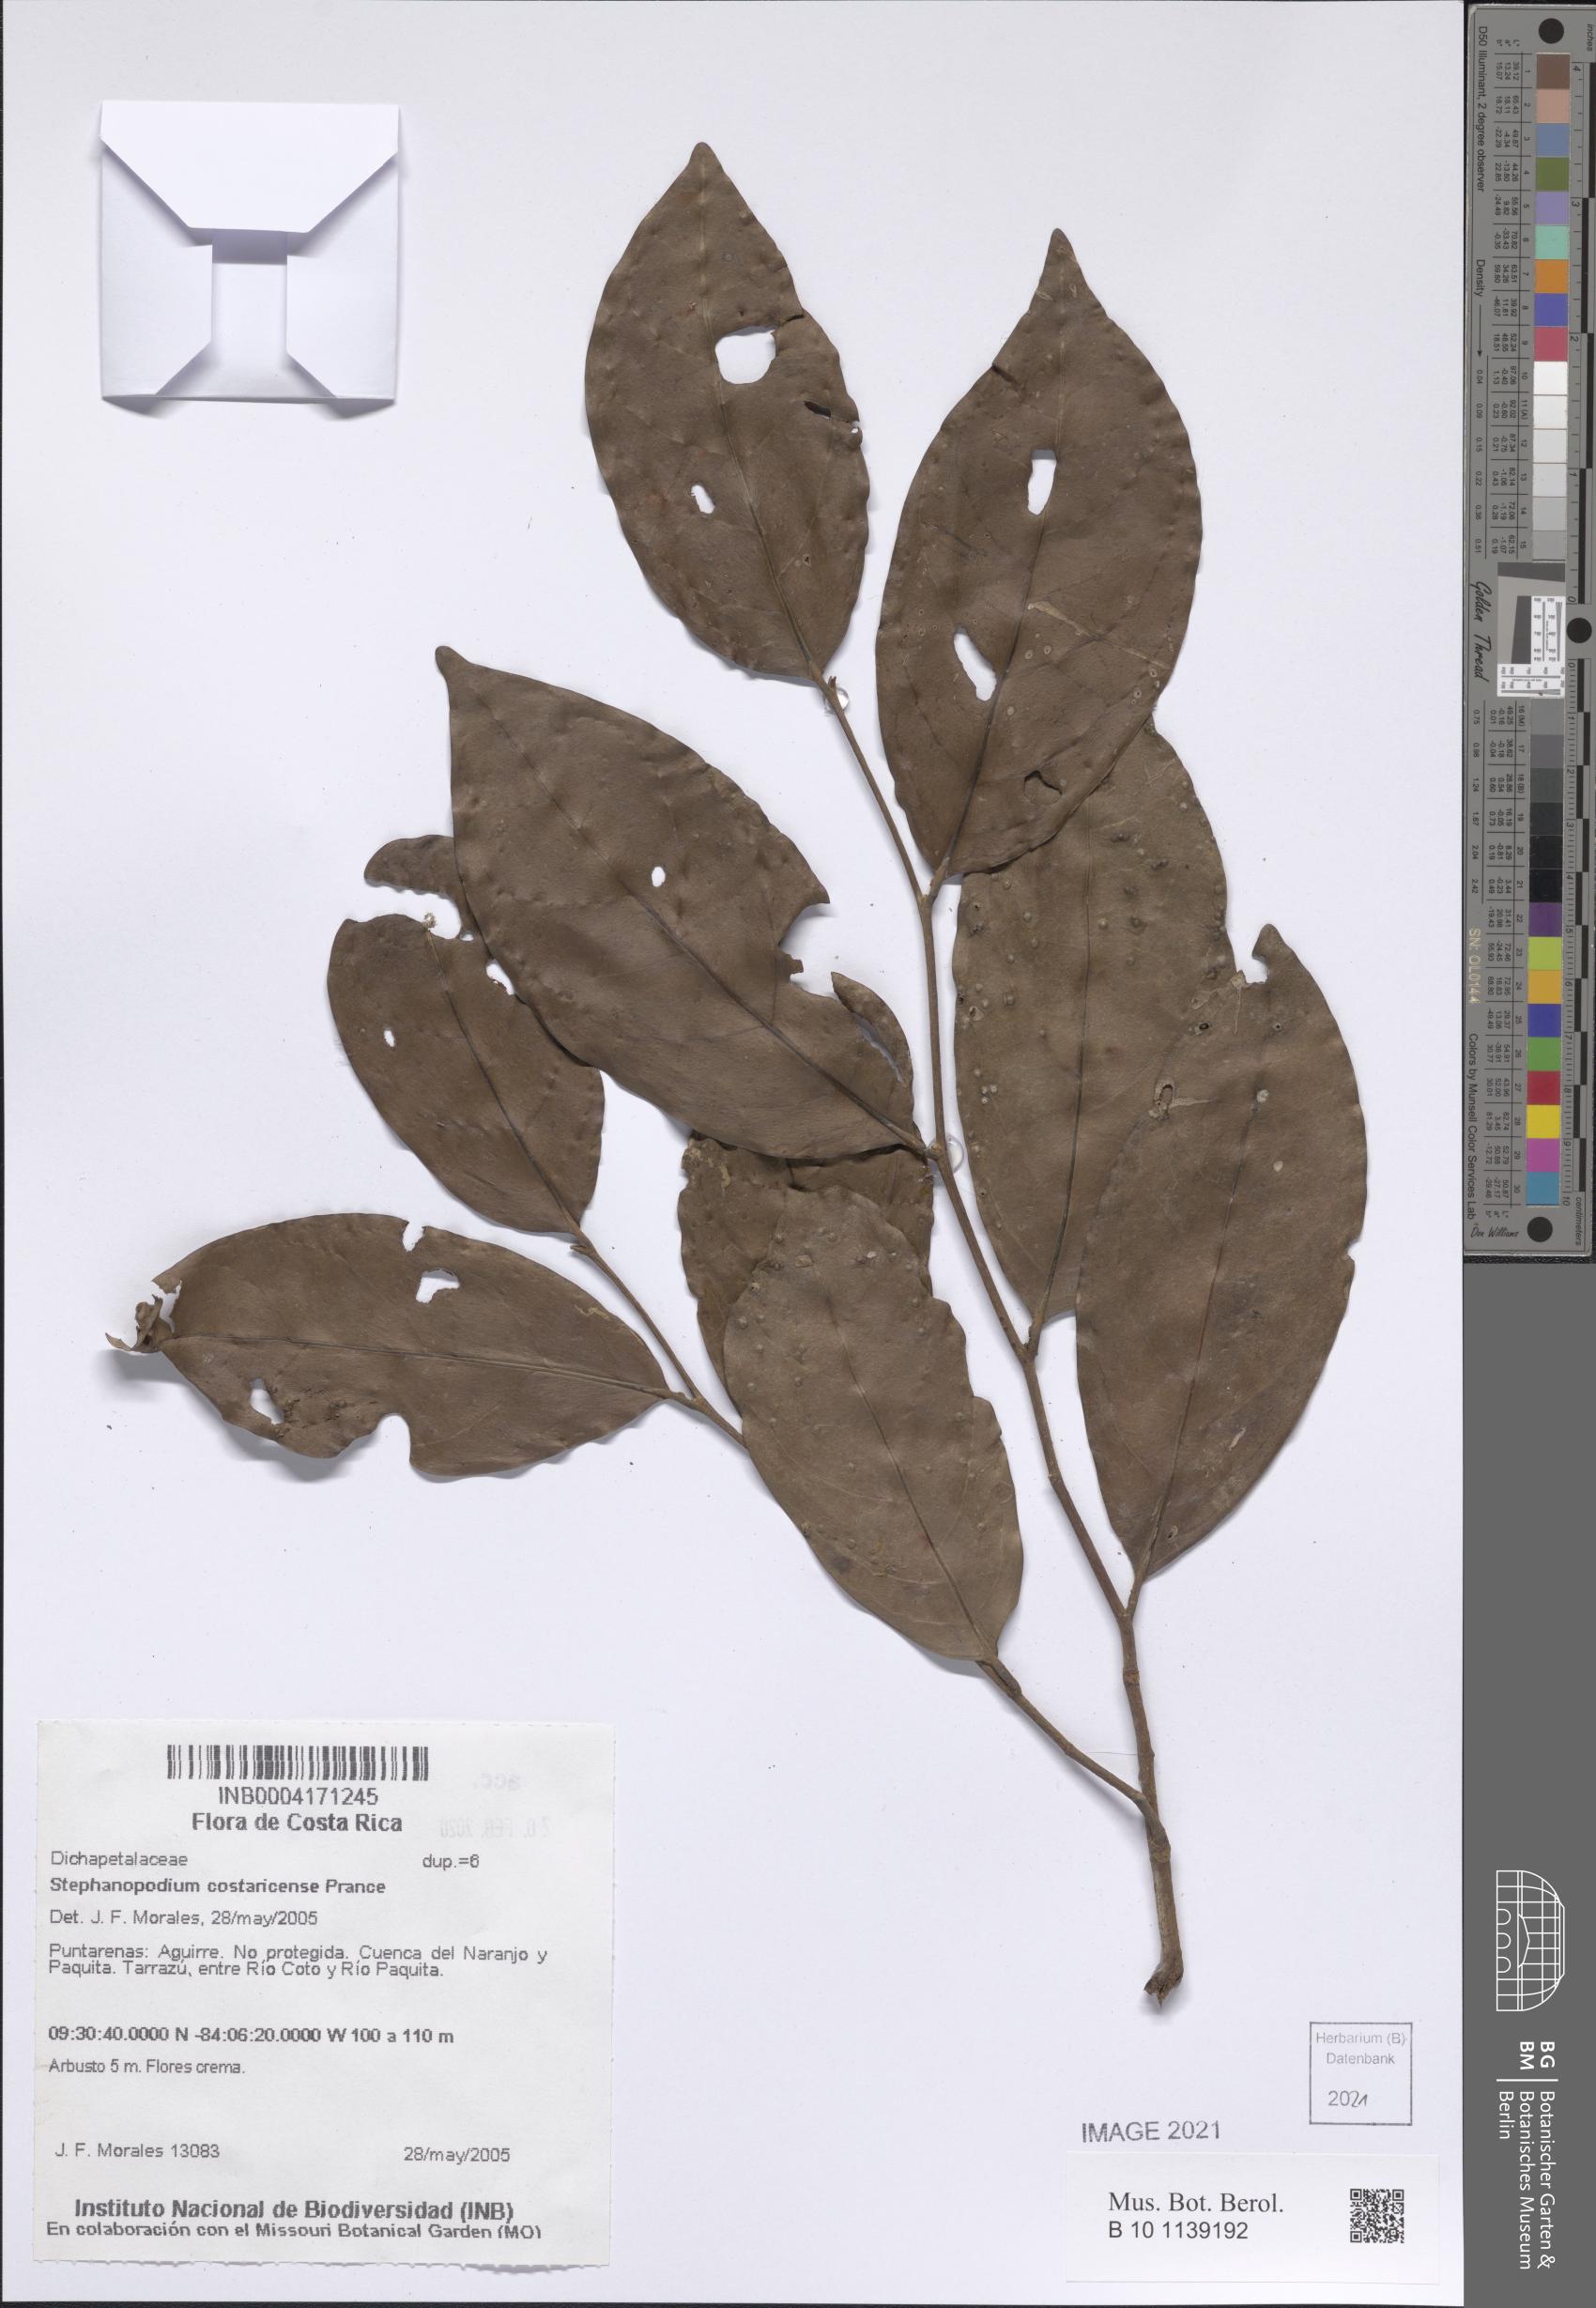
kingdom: Plantae
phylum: Tracheophyta
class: Magnoliopsida
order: Malpighiales
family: Dichapetalaceae
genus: Stephanopodium
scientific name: Stephanopodium costaricense
